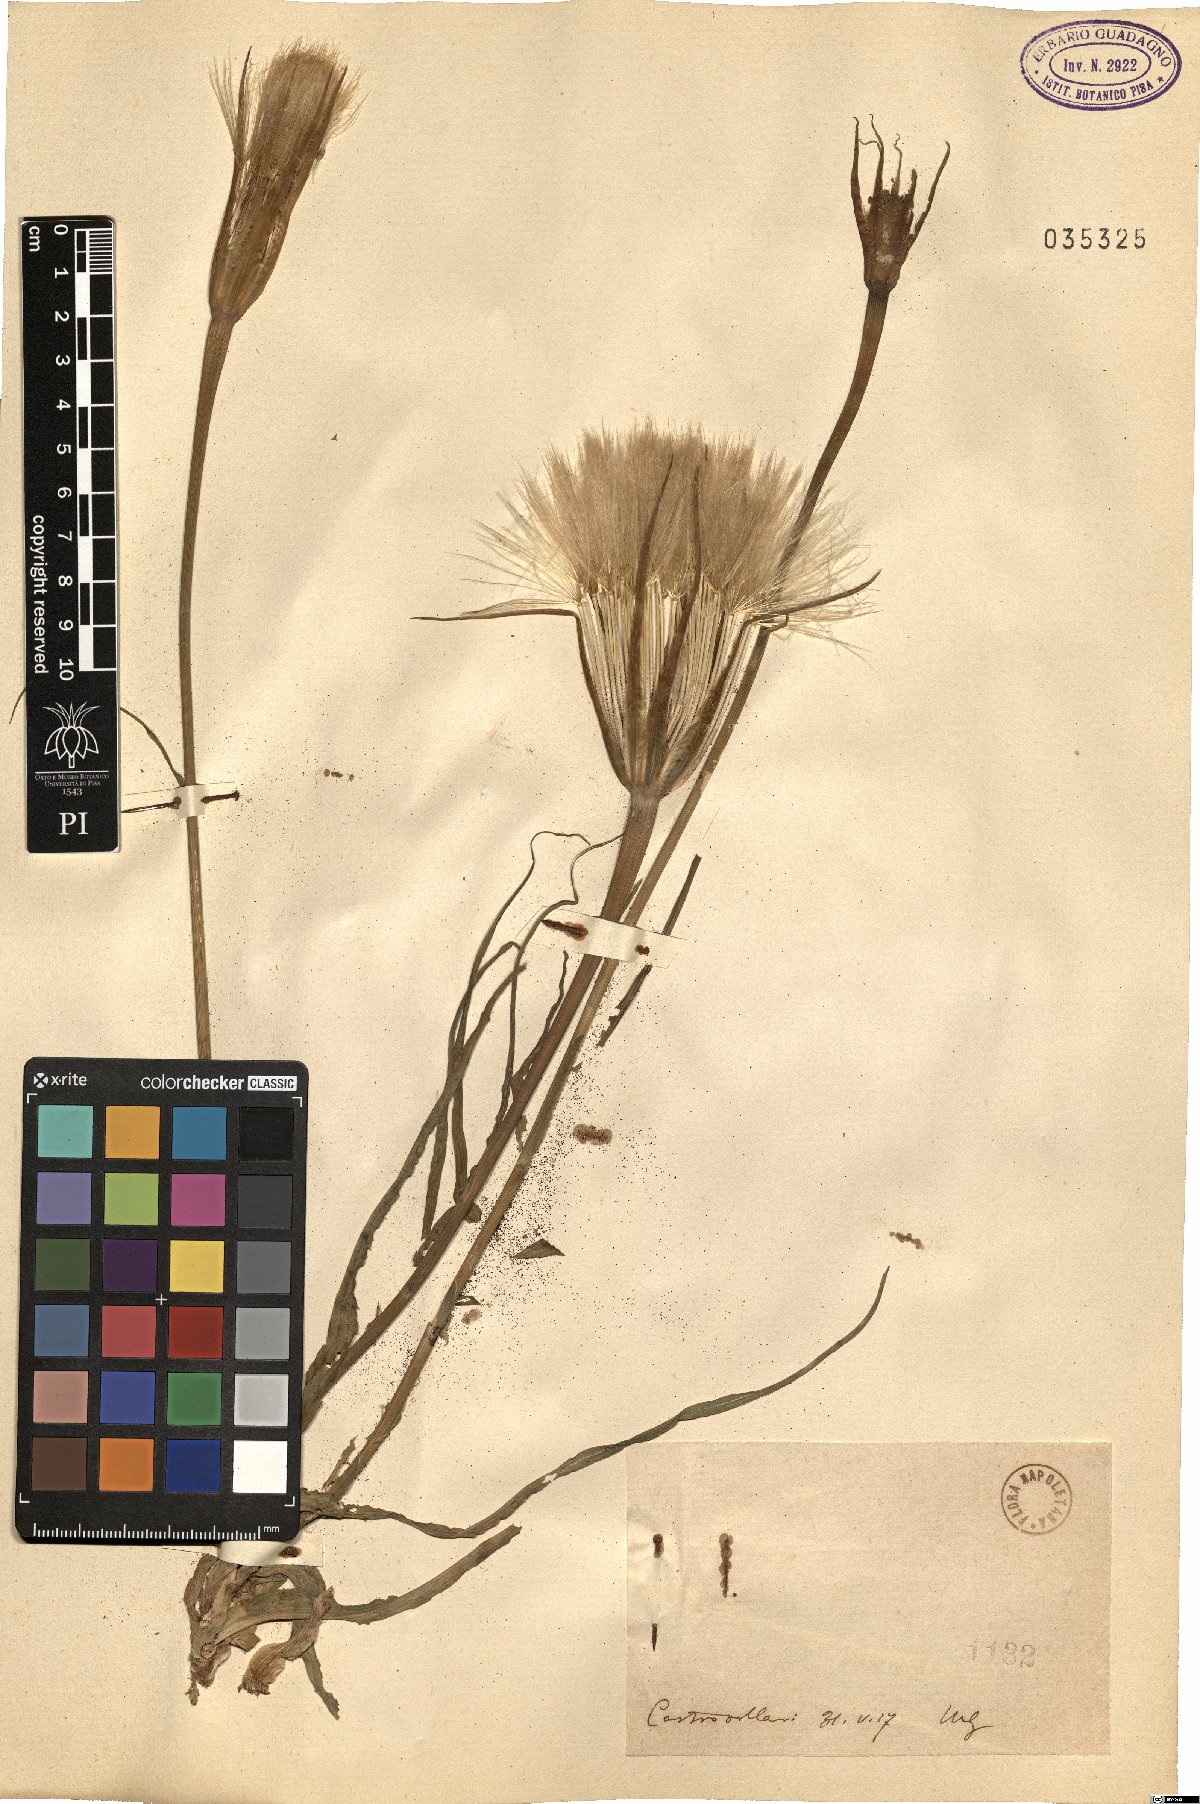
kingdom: Plantae
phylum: Tracheophyta
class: Magnoliopsida
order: Asterales
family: Asteraceae
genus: Geropogon
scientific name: Geropogon
